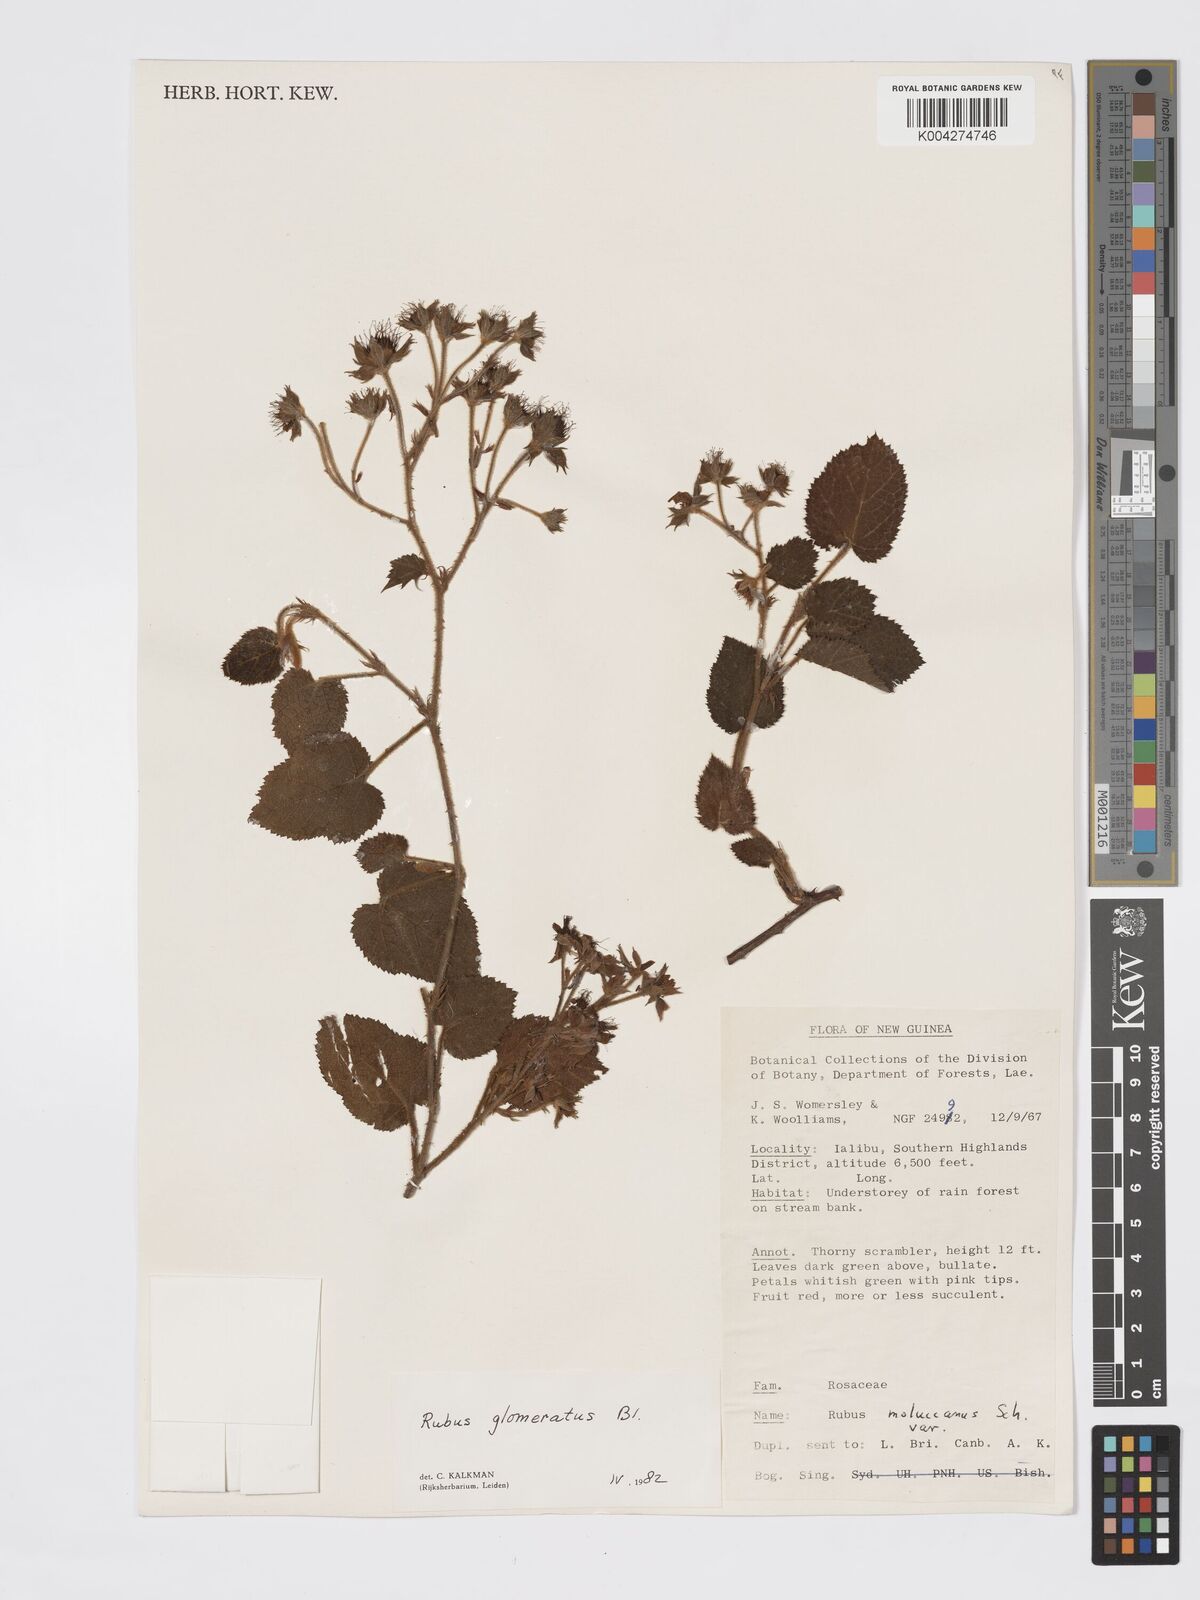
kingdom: Plantae
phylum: Tracheophyta
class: Magnoliopsida
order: Rosales
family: Rosaceae
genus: Rubus
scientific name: Rubus
